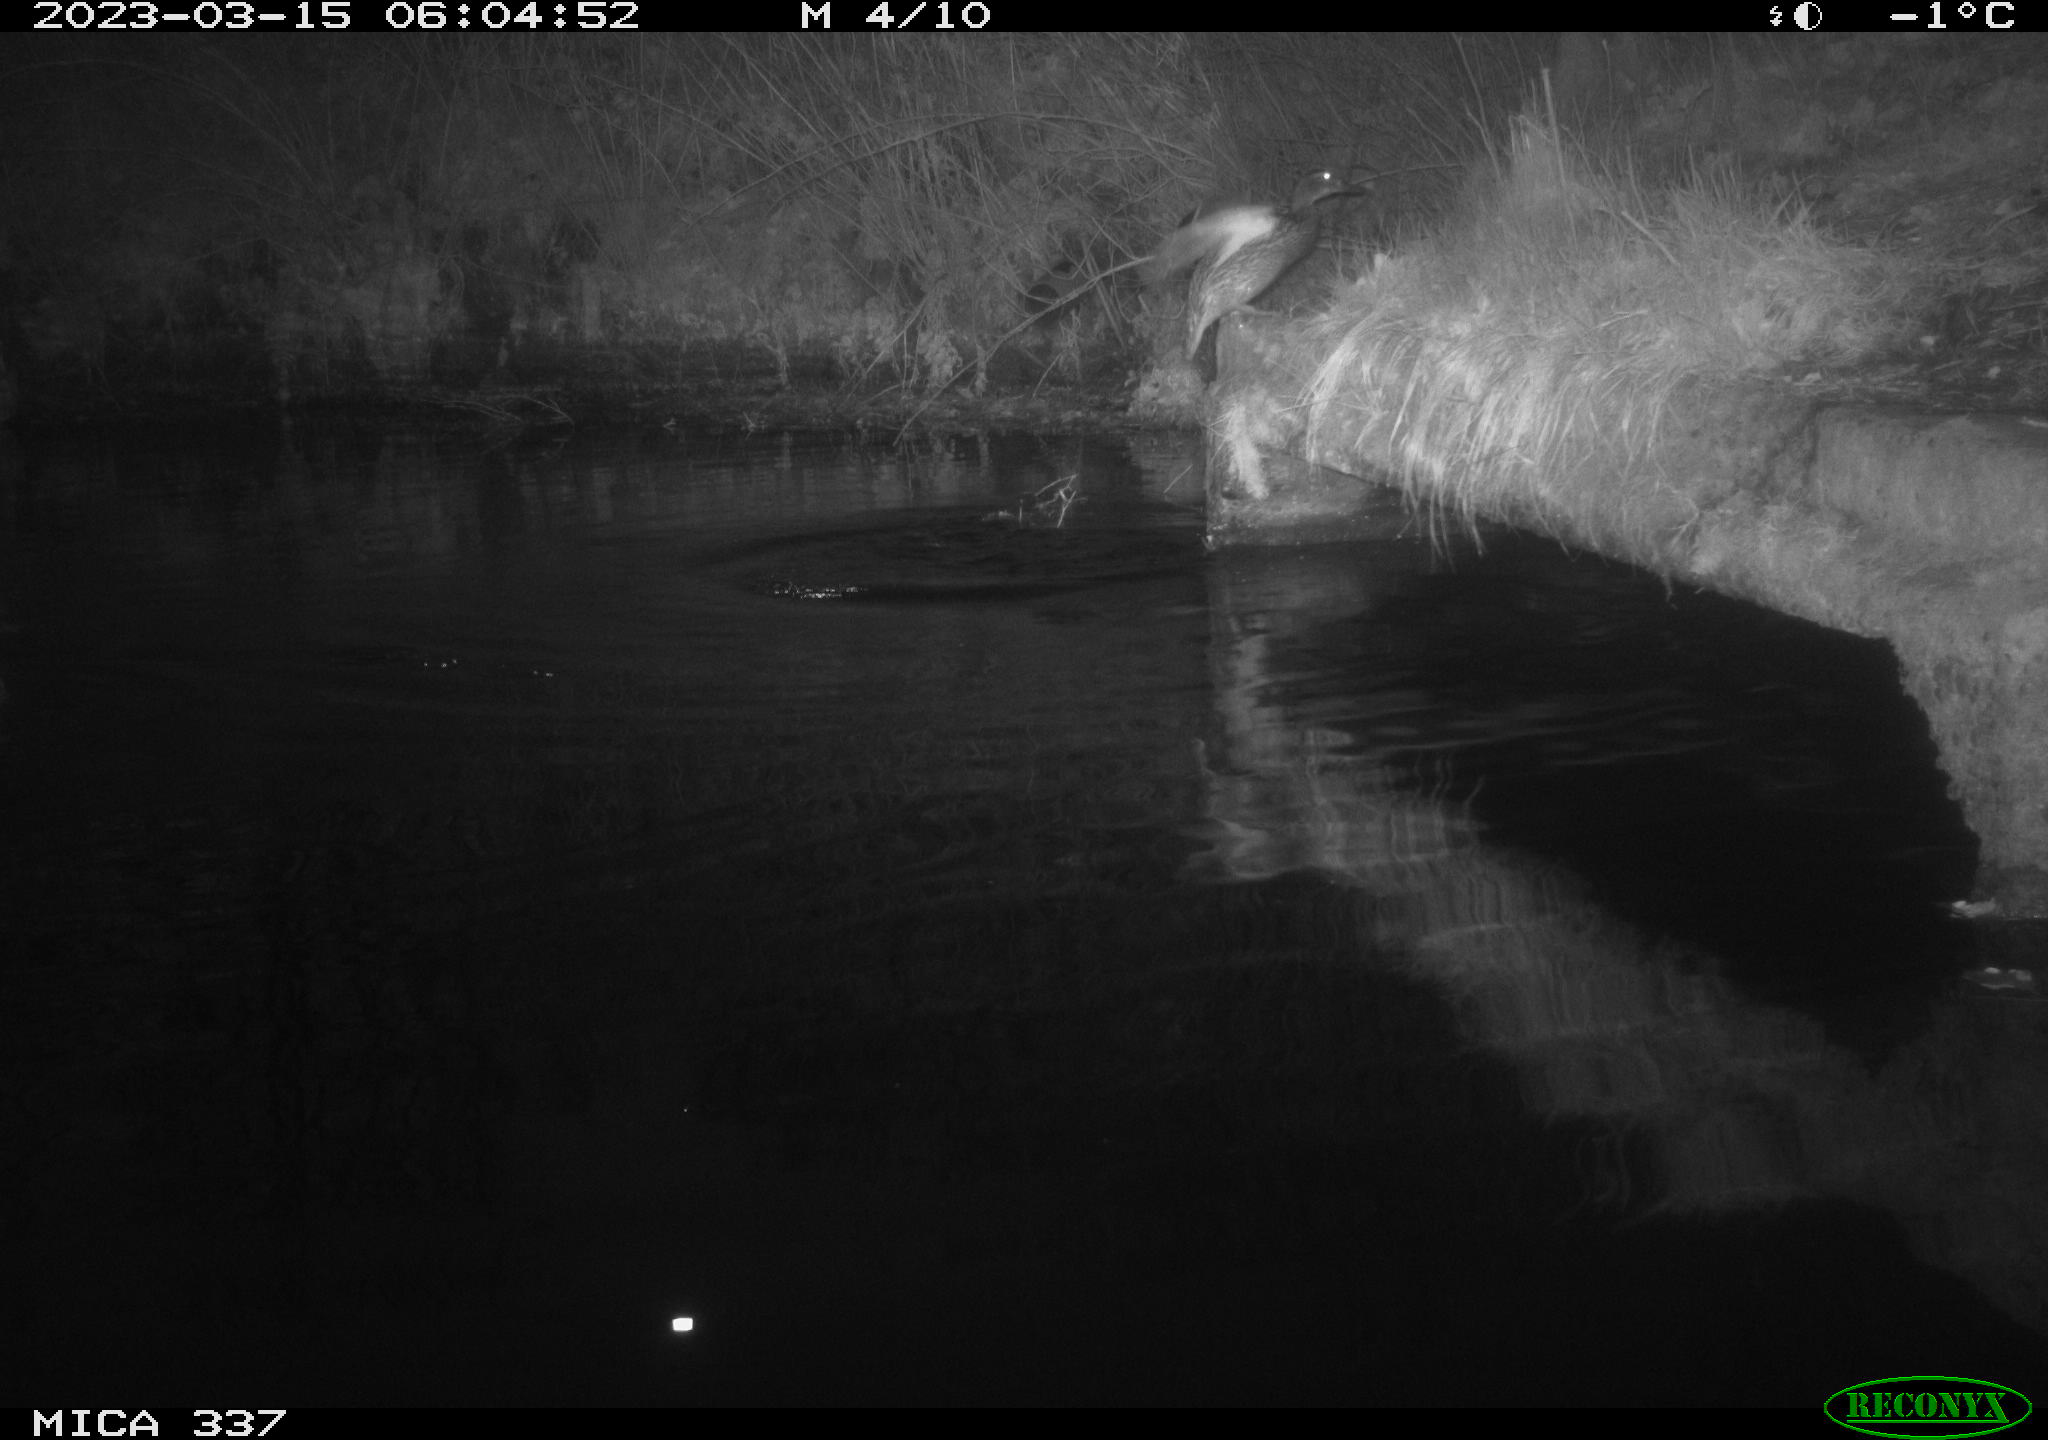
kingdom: Animalia
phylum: Chordata
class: Aves
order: Anseriformes
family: Anatidae
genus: Anas
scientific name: Anas
